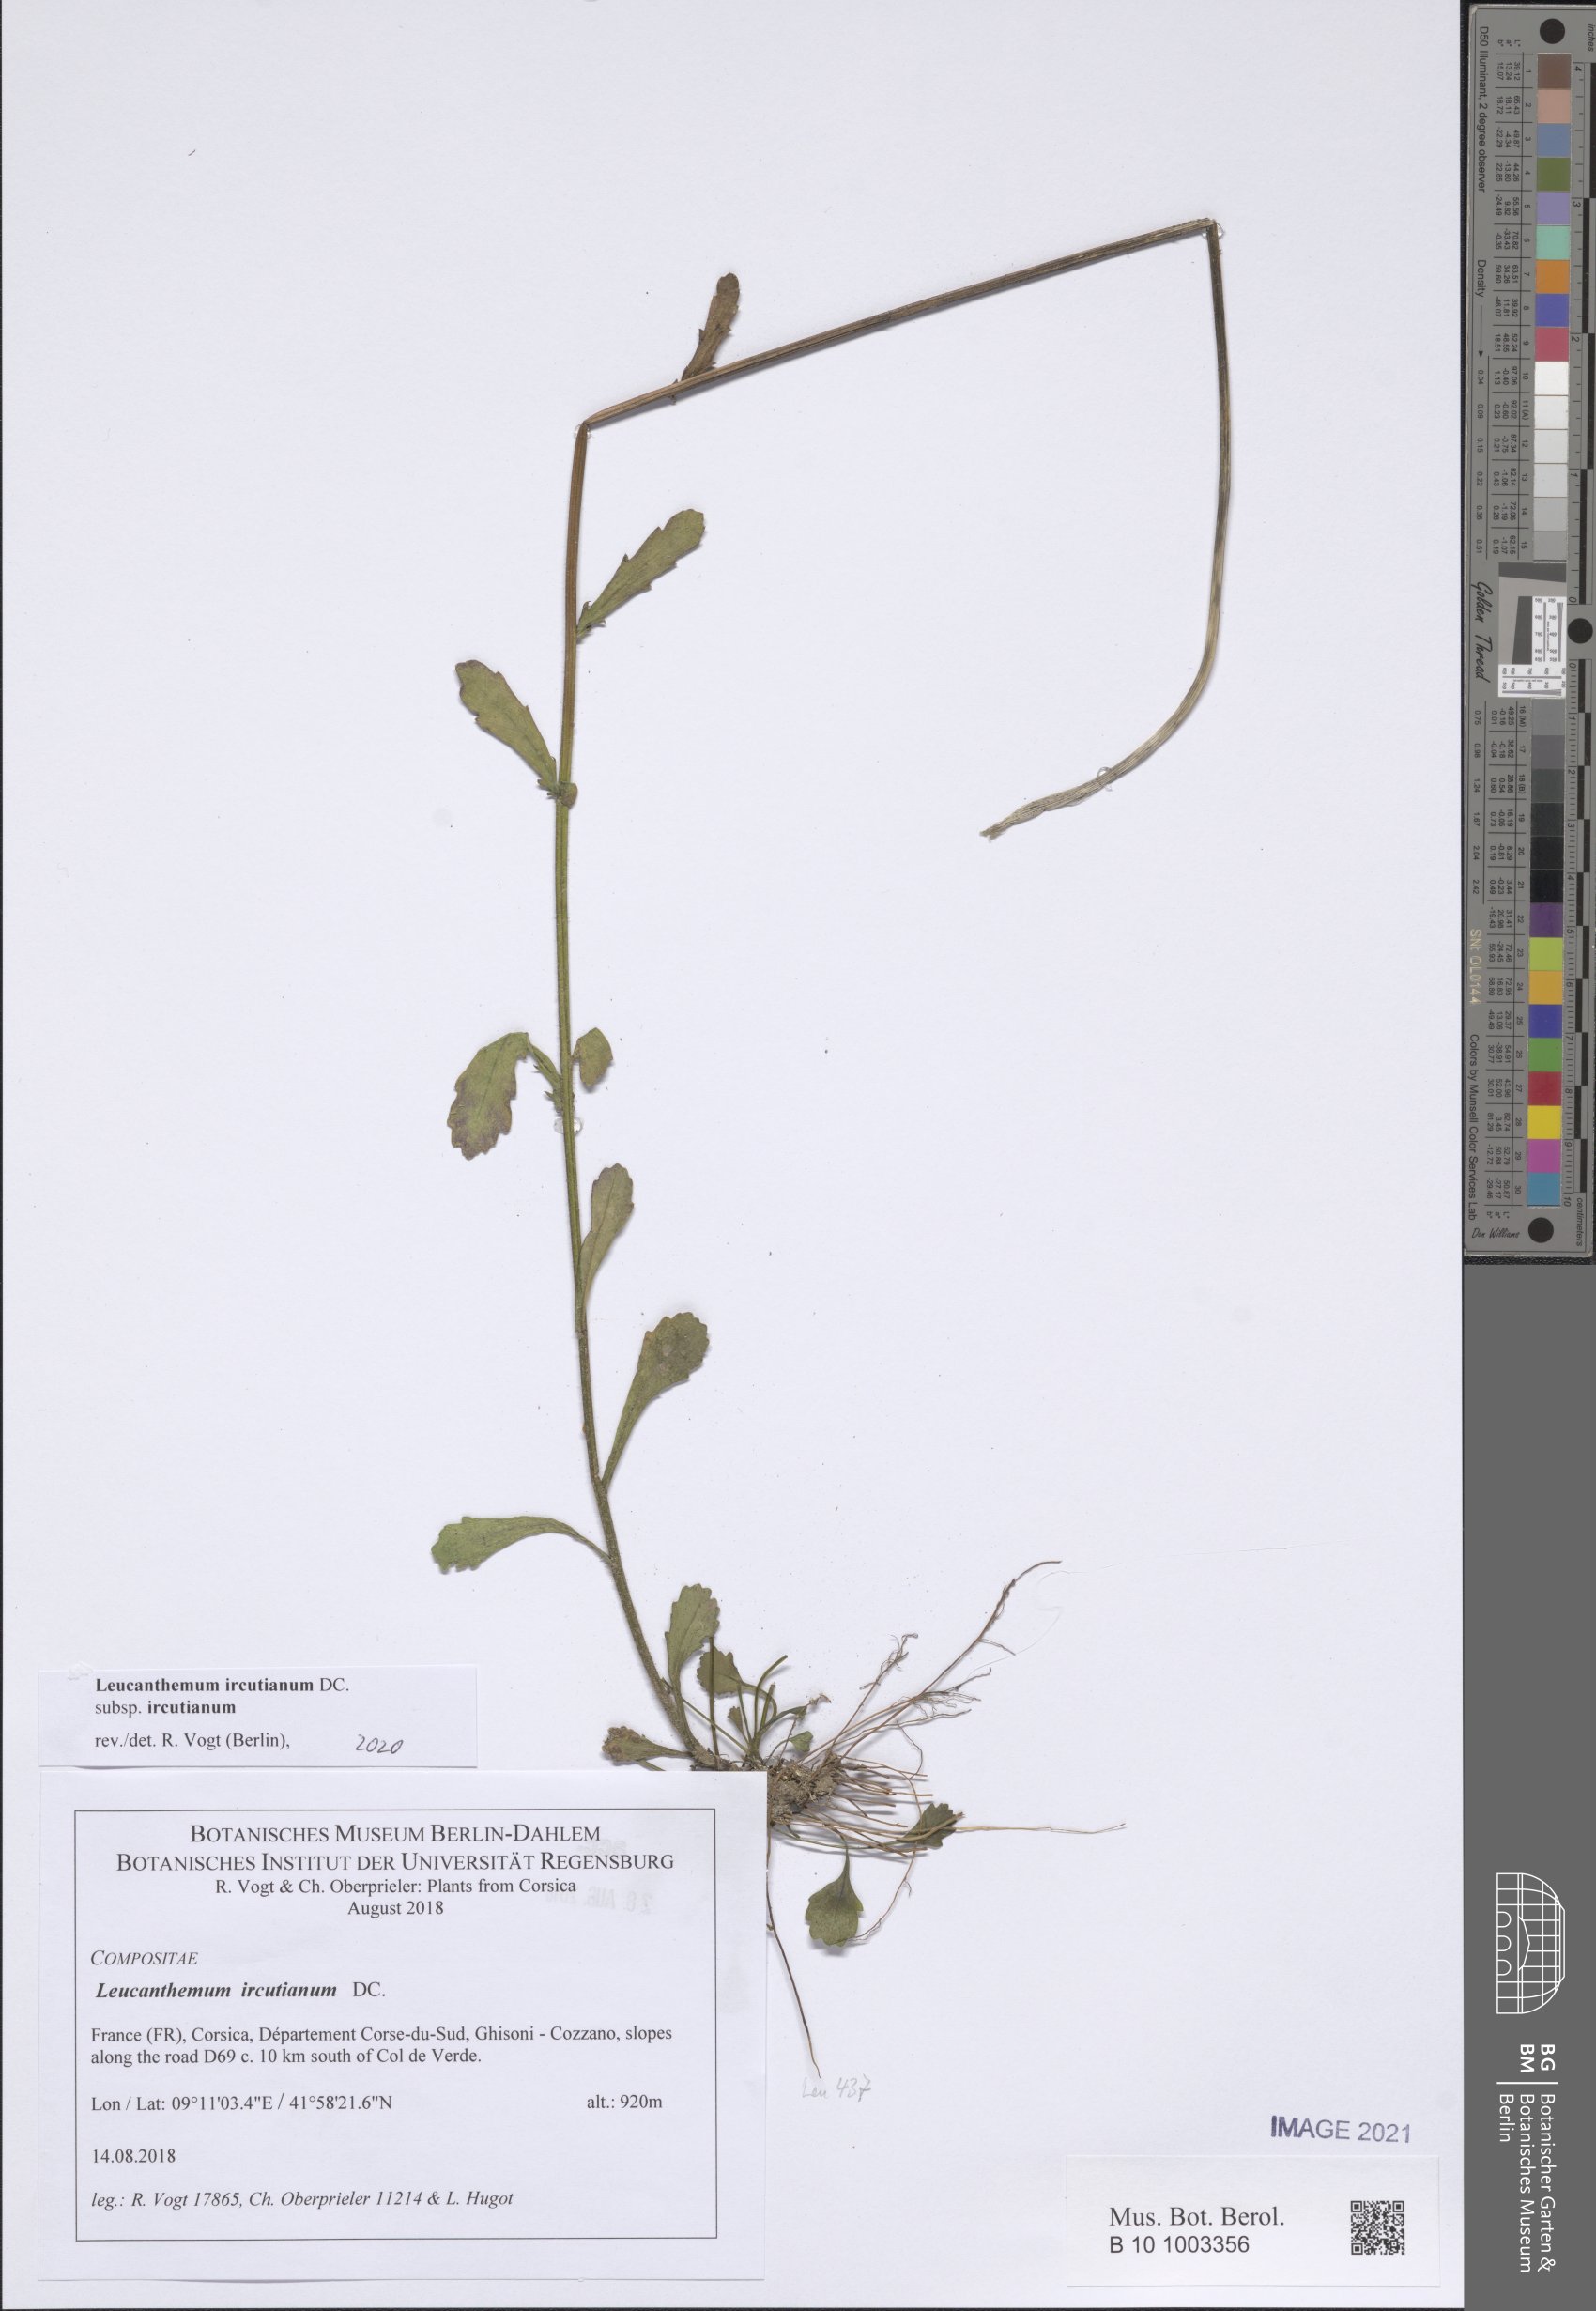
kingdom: Plantae
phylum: Tracheophyta
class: Magnoliopsida
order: Asterales
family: Asteraceae
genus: Leucanthemum
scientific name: Leucanthemum ircutianum
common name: Daisy
